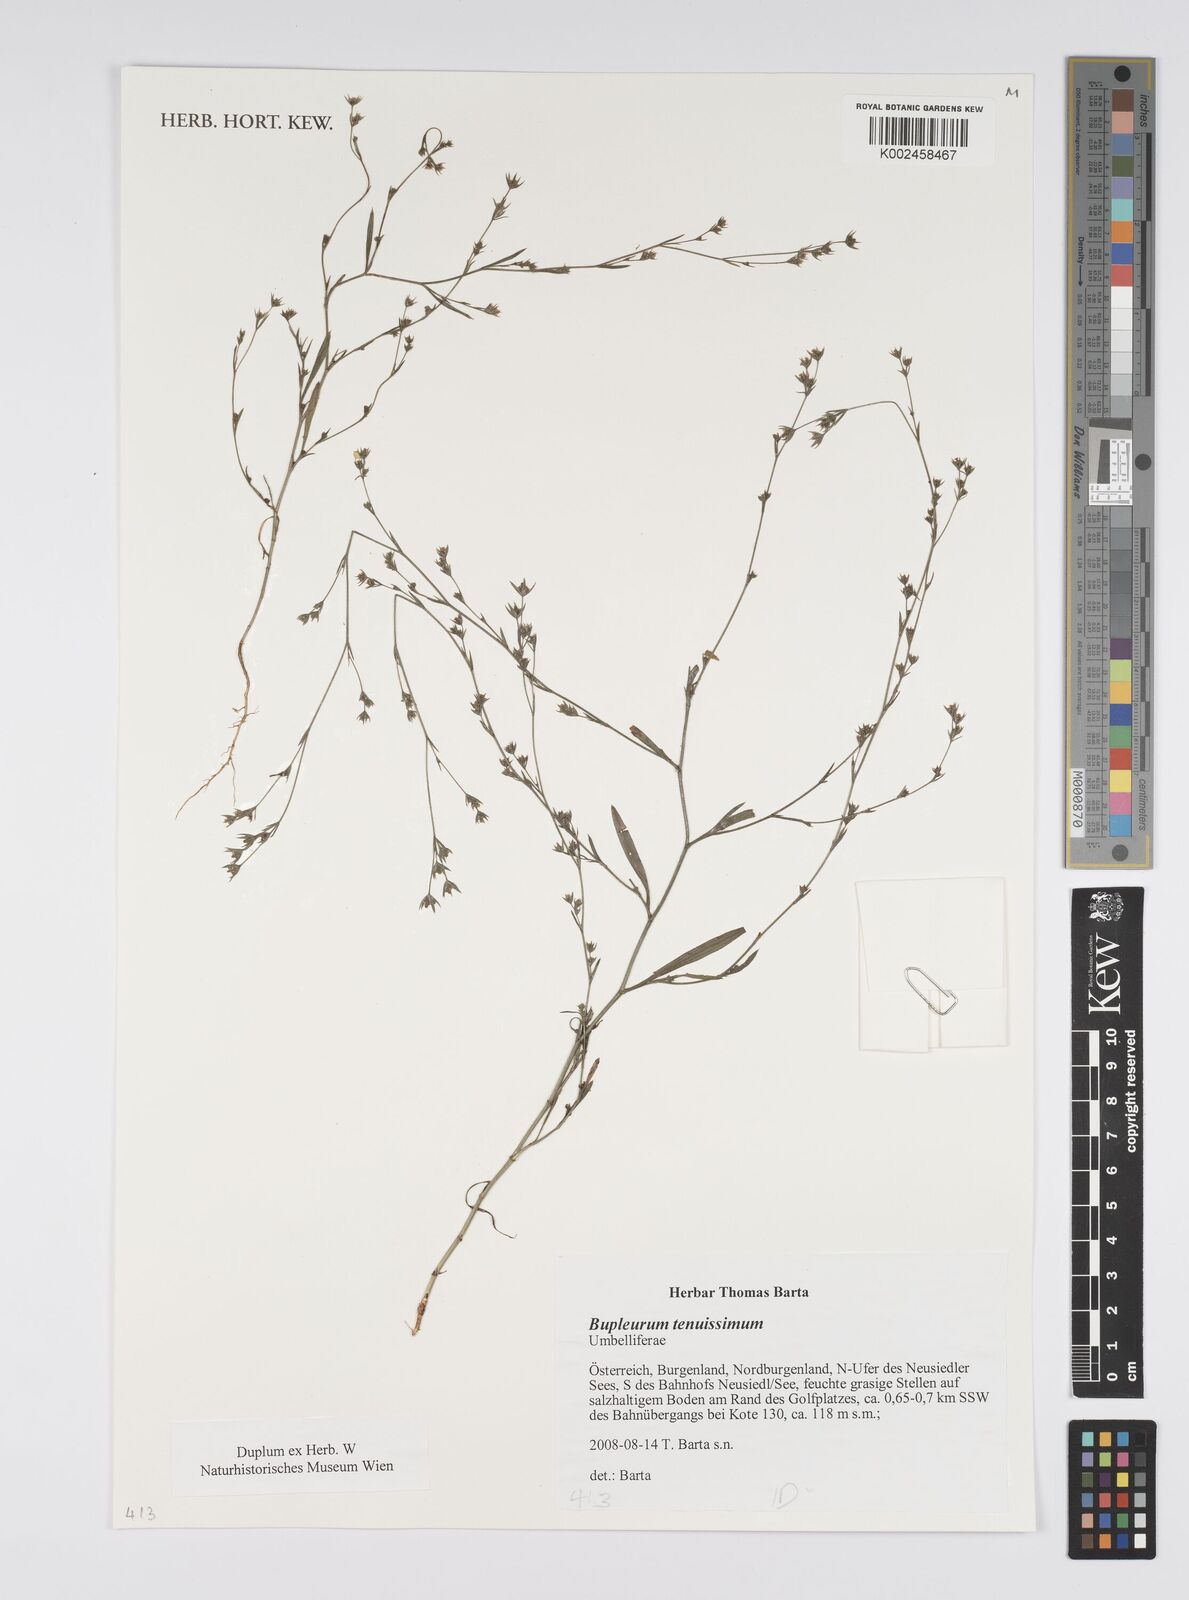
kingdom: Plantae
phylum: Tracheophyta
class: Magnoliopsida
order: Apiales
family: Apiaceae
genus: Bupleurum
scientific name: Bupleurum tenuissimum
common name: Slender hare's-ear
